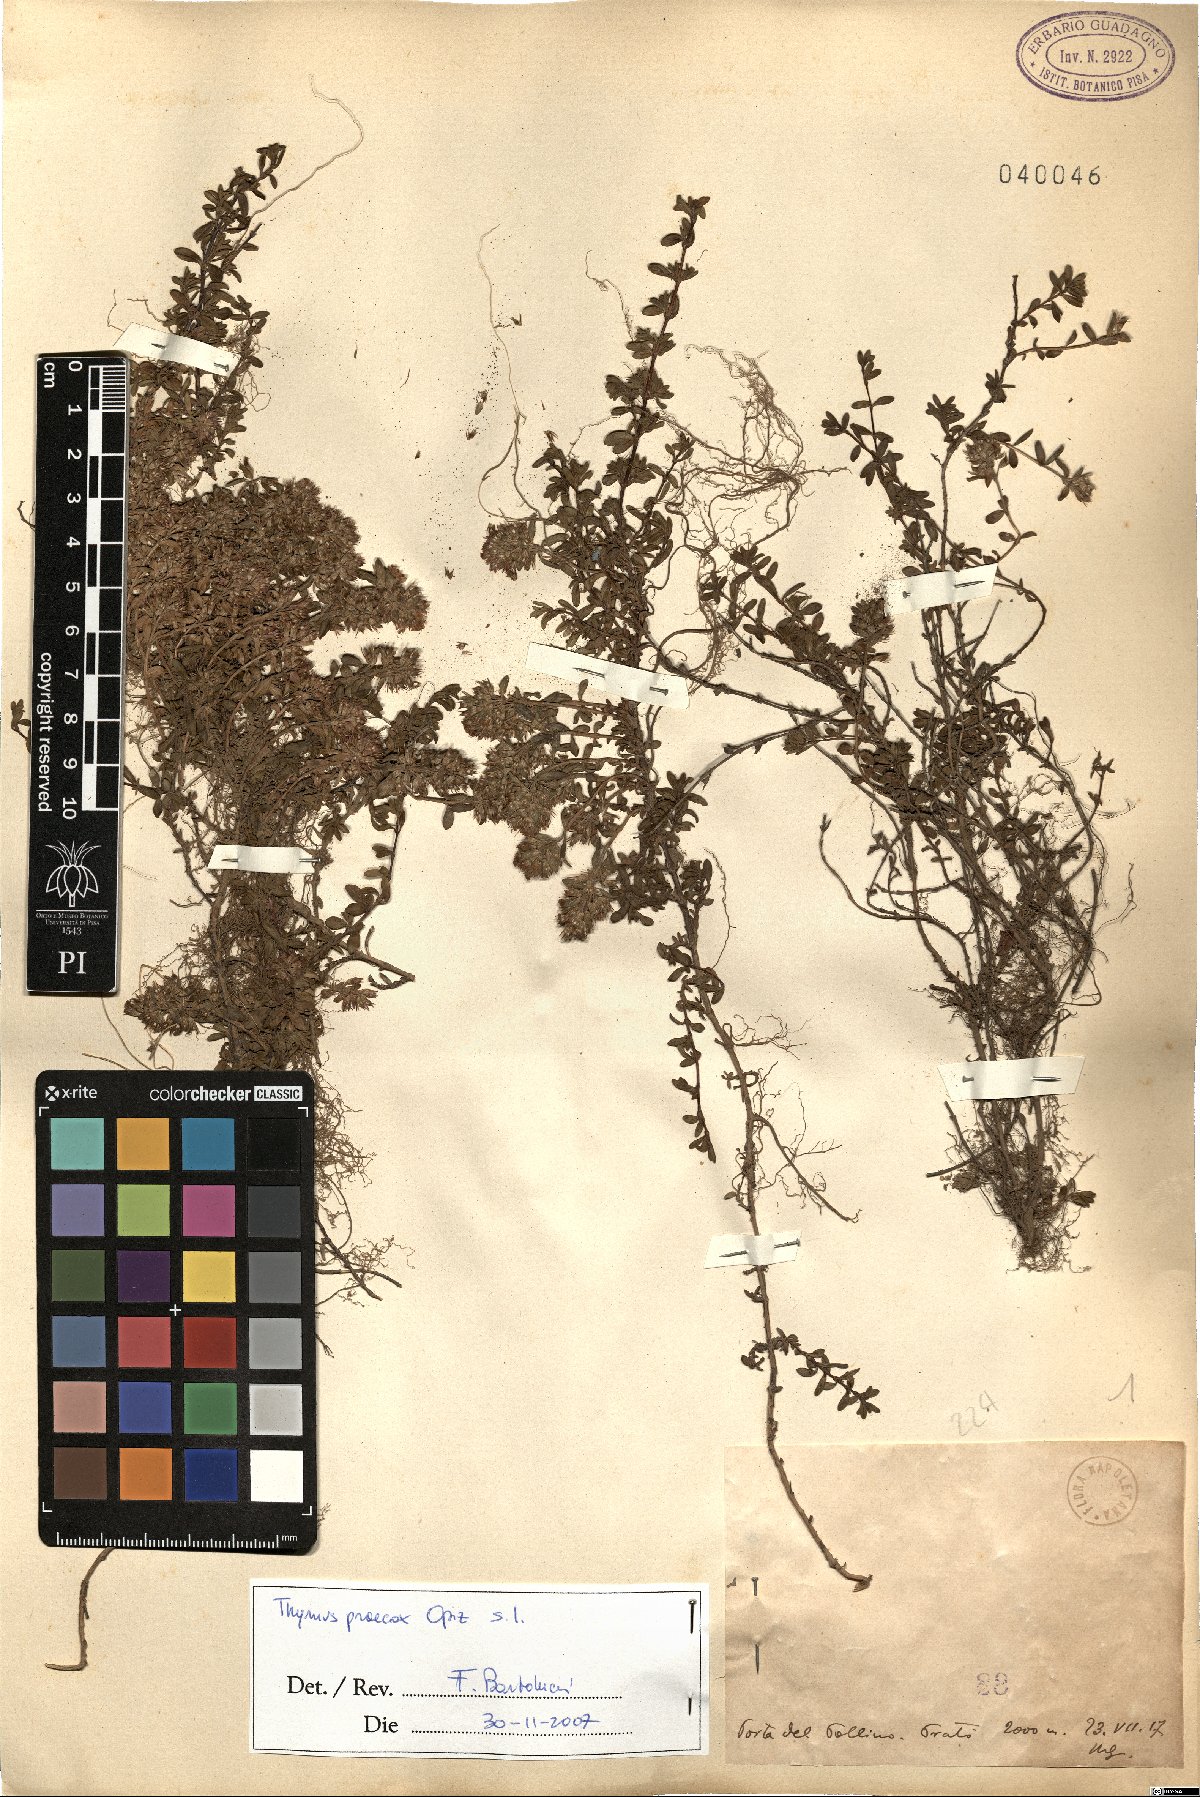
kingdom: Plantae
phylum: Tracheophyta
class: Magnoliopsida
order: Lamiales
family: Lamiaceae
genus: Thymus
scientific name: Thymus praecox
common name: Wild thyme
